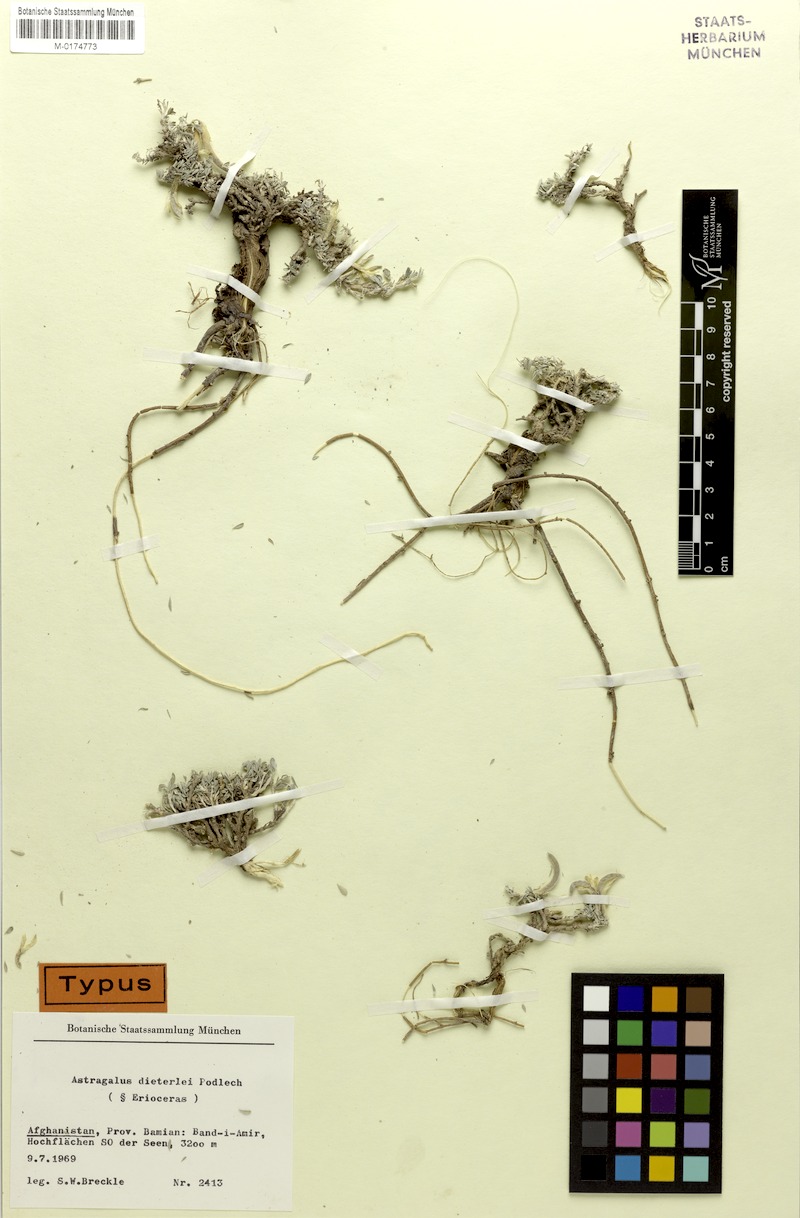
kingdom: Plantae
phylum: Tracheophyta
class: Magnoliopsida
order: Fabales
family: Fabaceae
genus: Astragalus
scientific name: Astragalus flabellatus
